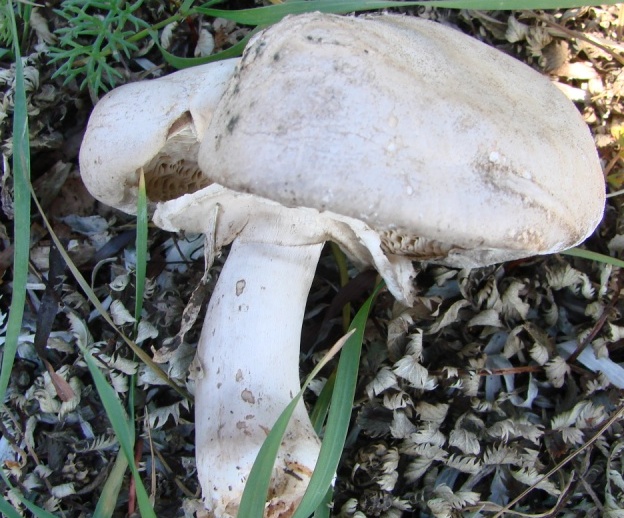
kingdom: Fungi
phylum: Basidiomycota
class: Agaricomycetes
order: Agaricales
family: Agaricaceae
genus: Leucoagaricus
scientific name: Leucoagaricus carneifolius
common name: grånende silkehat
